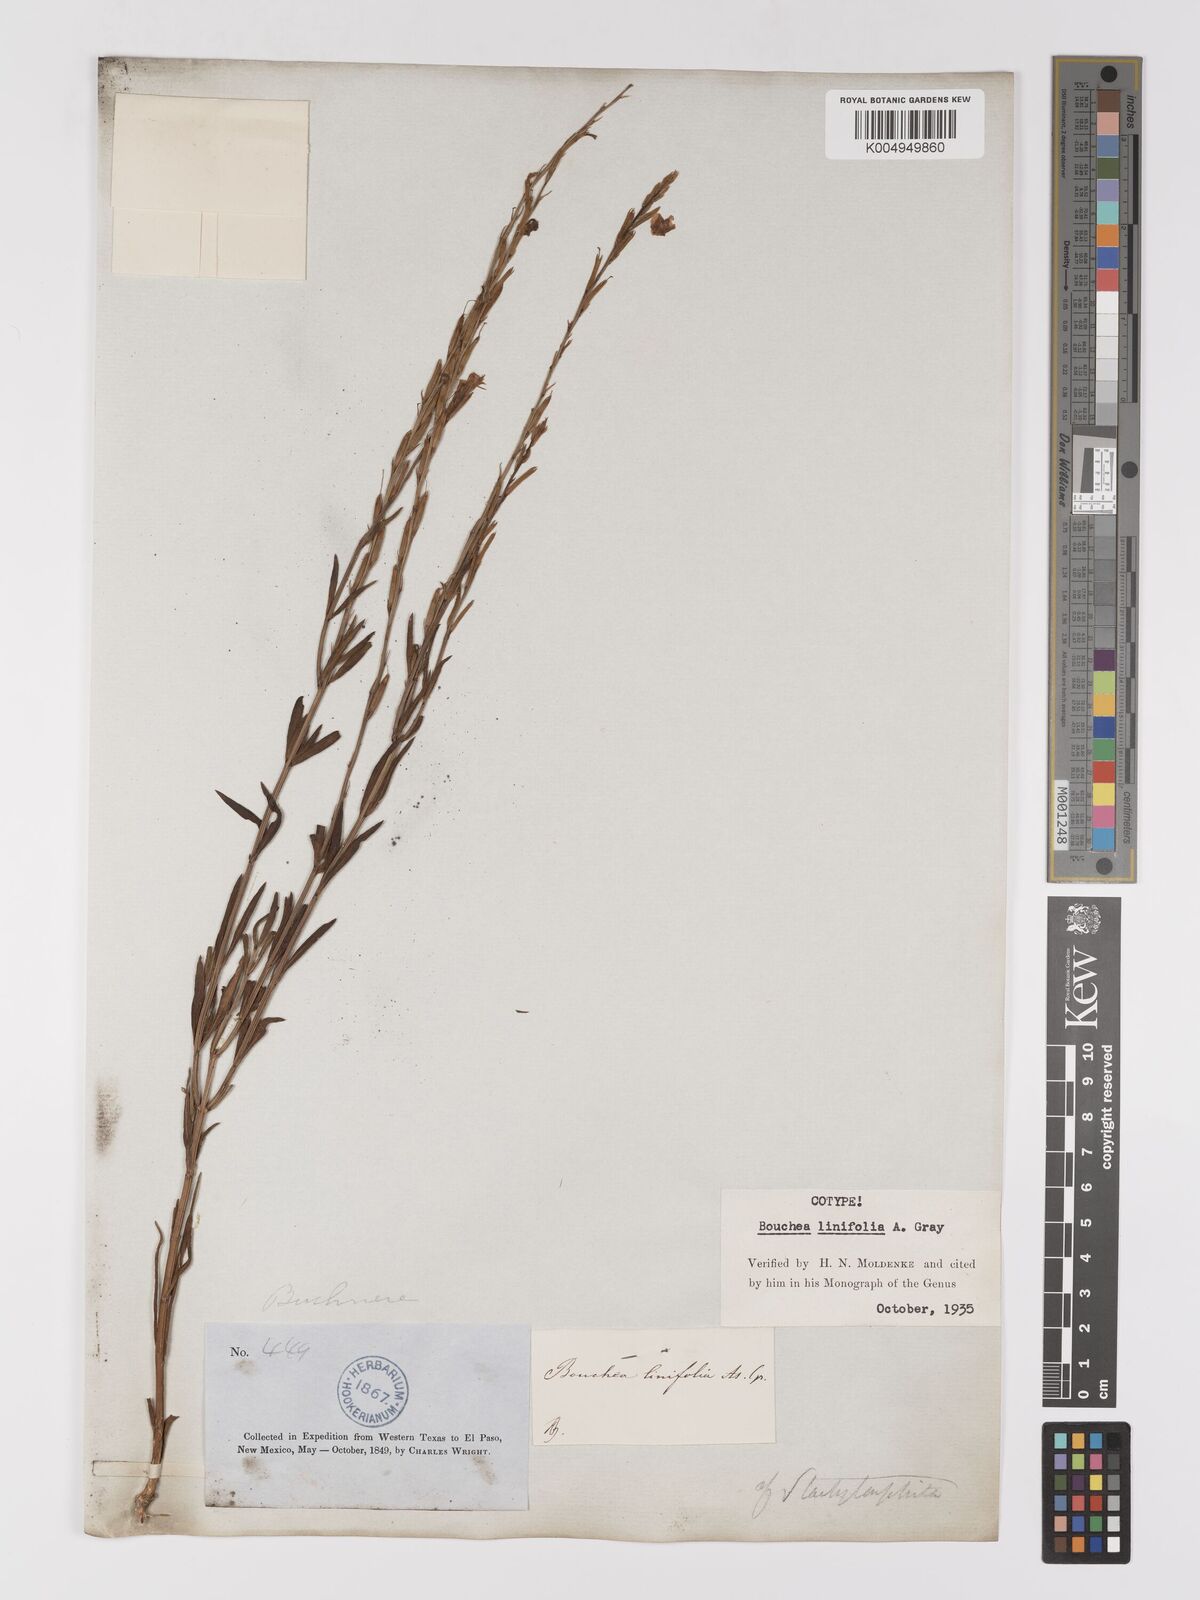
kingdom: Plantae
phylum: Tracheophyta
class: Magnoliopsida
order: Lamiales
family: Verbenaceae
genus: Bouchea
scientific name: Bouchea linifolia
